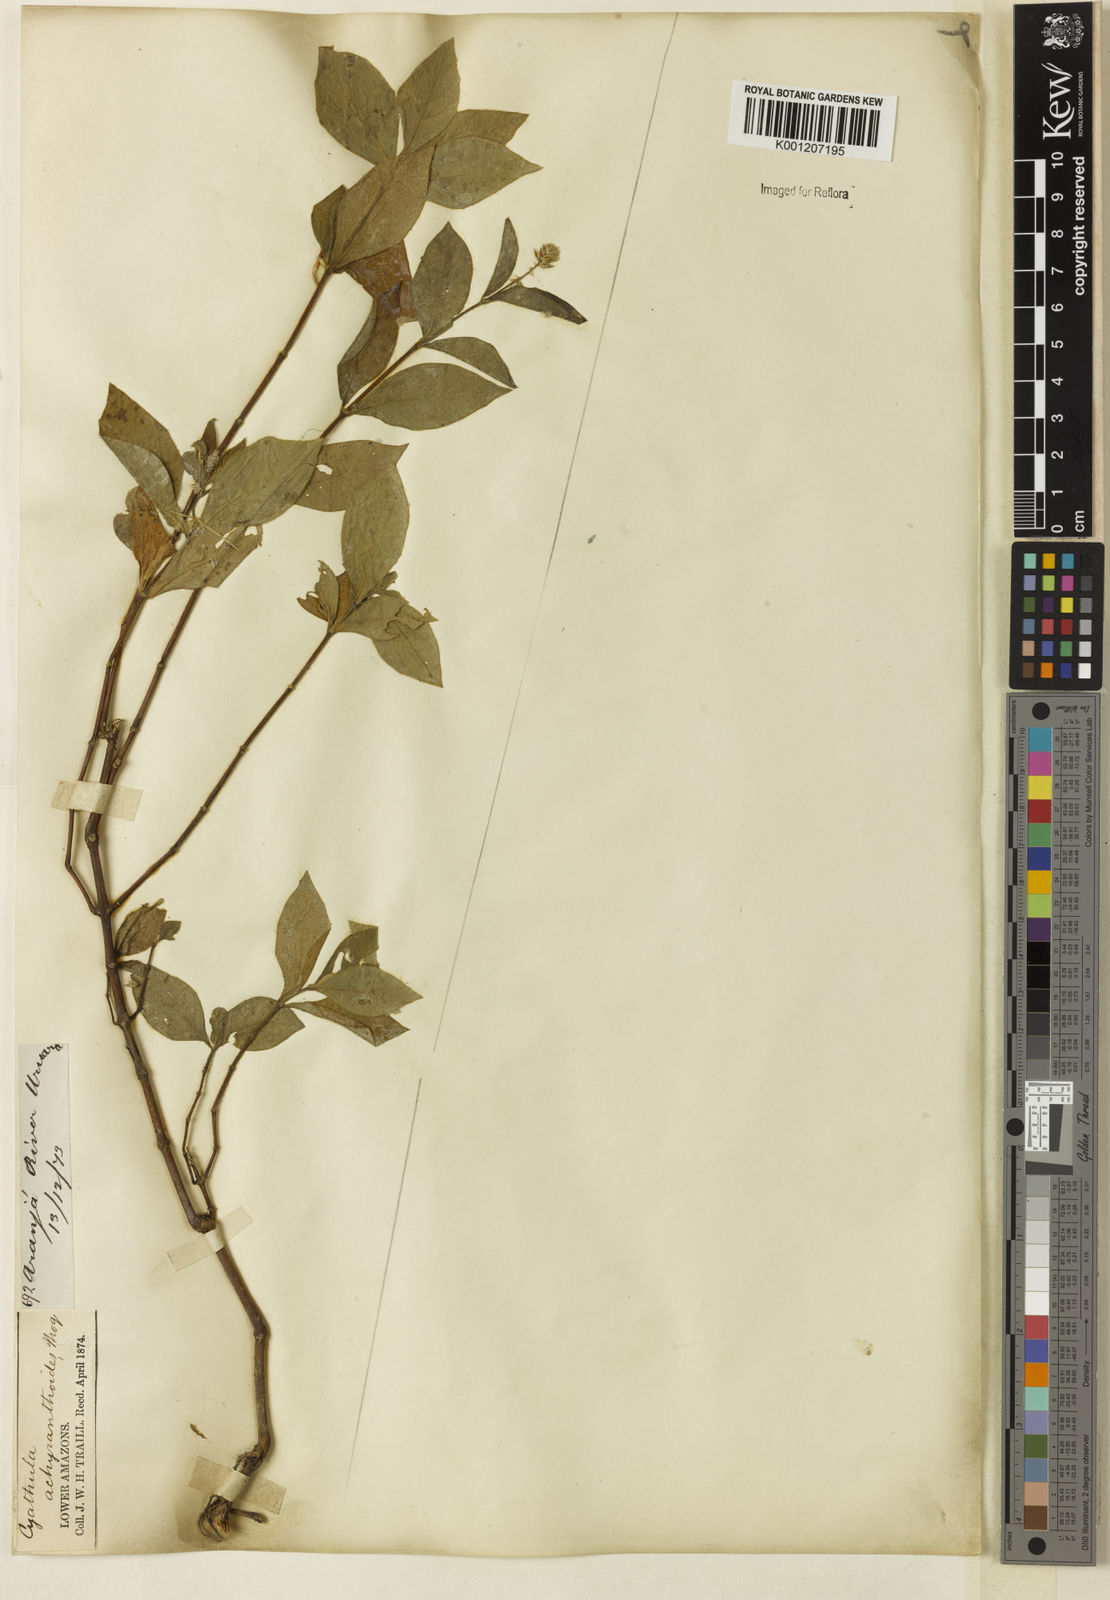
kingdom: Plantae
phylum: Tracheophyta
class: Magnoliopsida
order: Caryophyllales
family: Amaranthaceae
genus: Cyathula
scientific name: Cyathula achyranthoides
